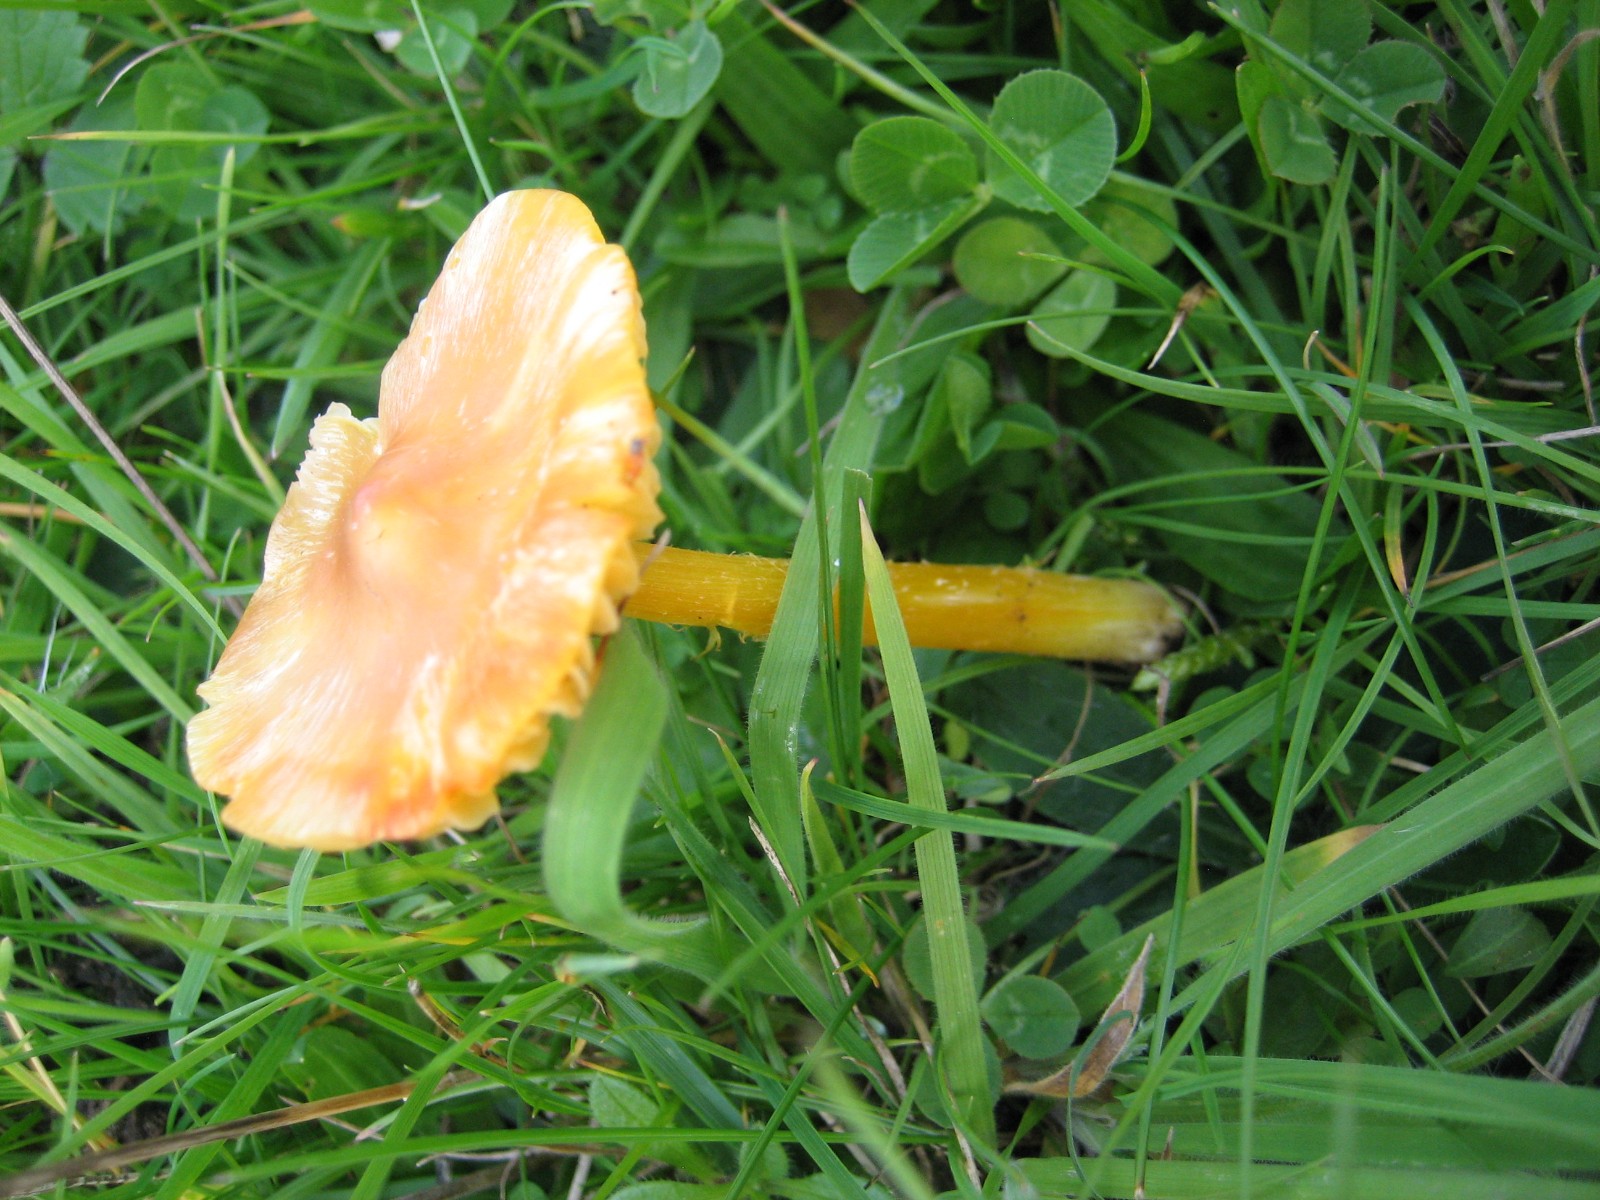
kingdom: Fungi
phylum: Basidiomycota
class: Agaricomycetes
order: Agaricales
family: Hygrophoraceae
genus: Hygrocybe
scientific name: Hygrocybe
